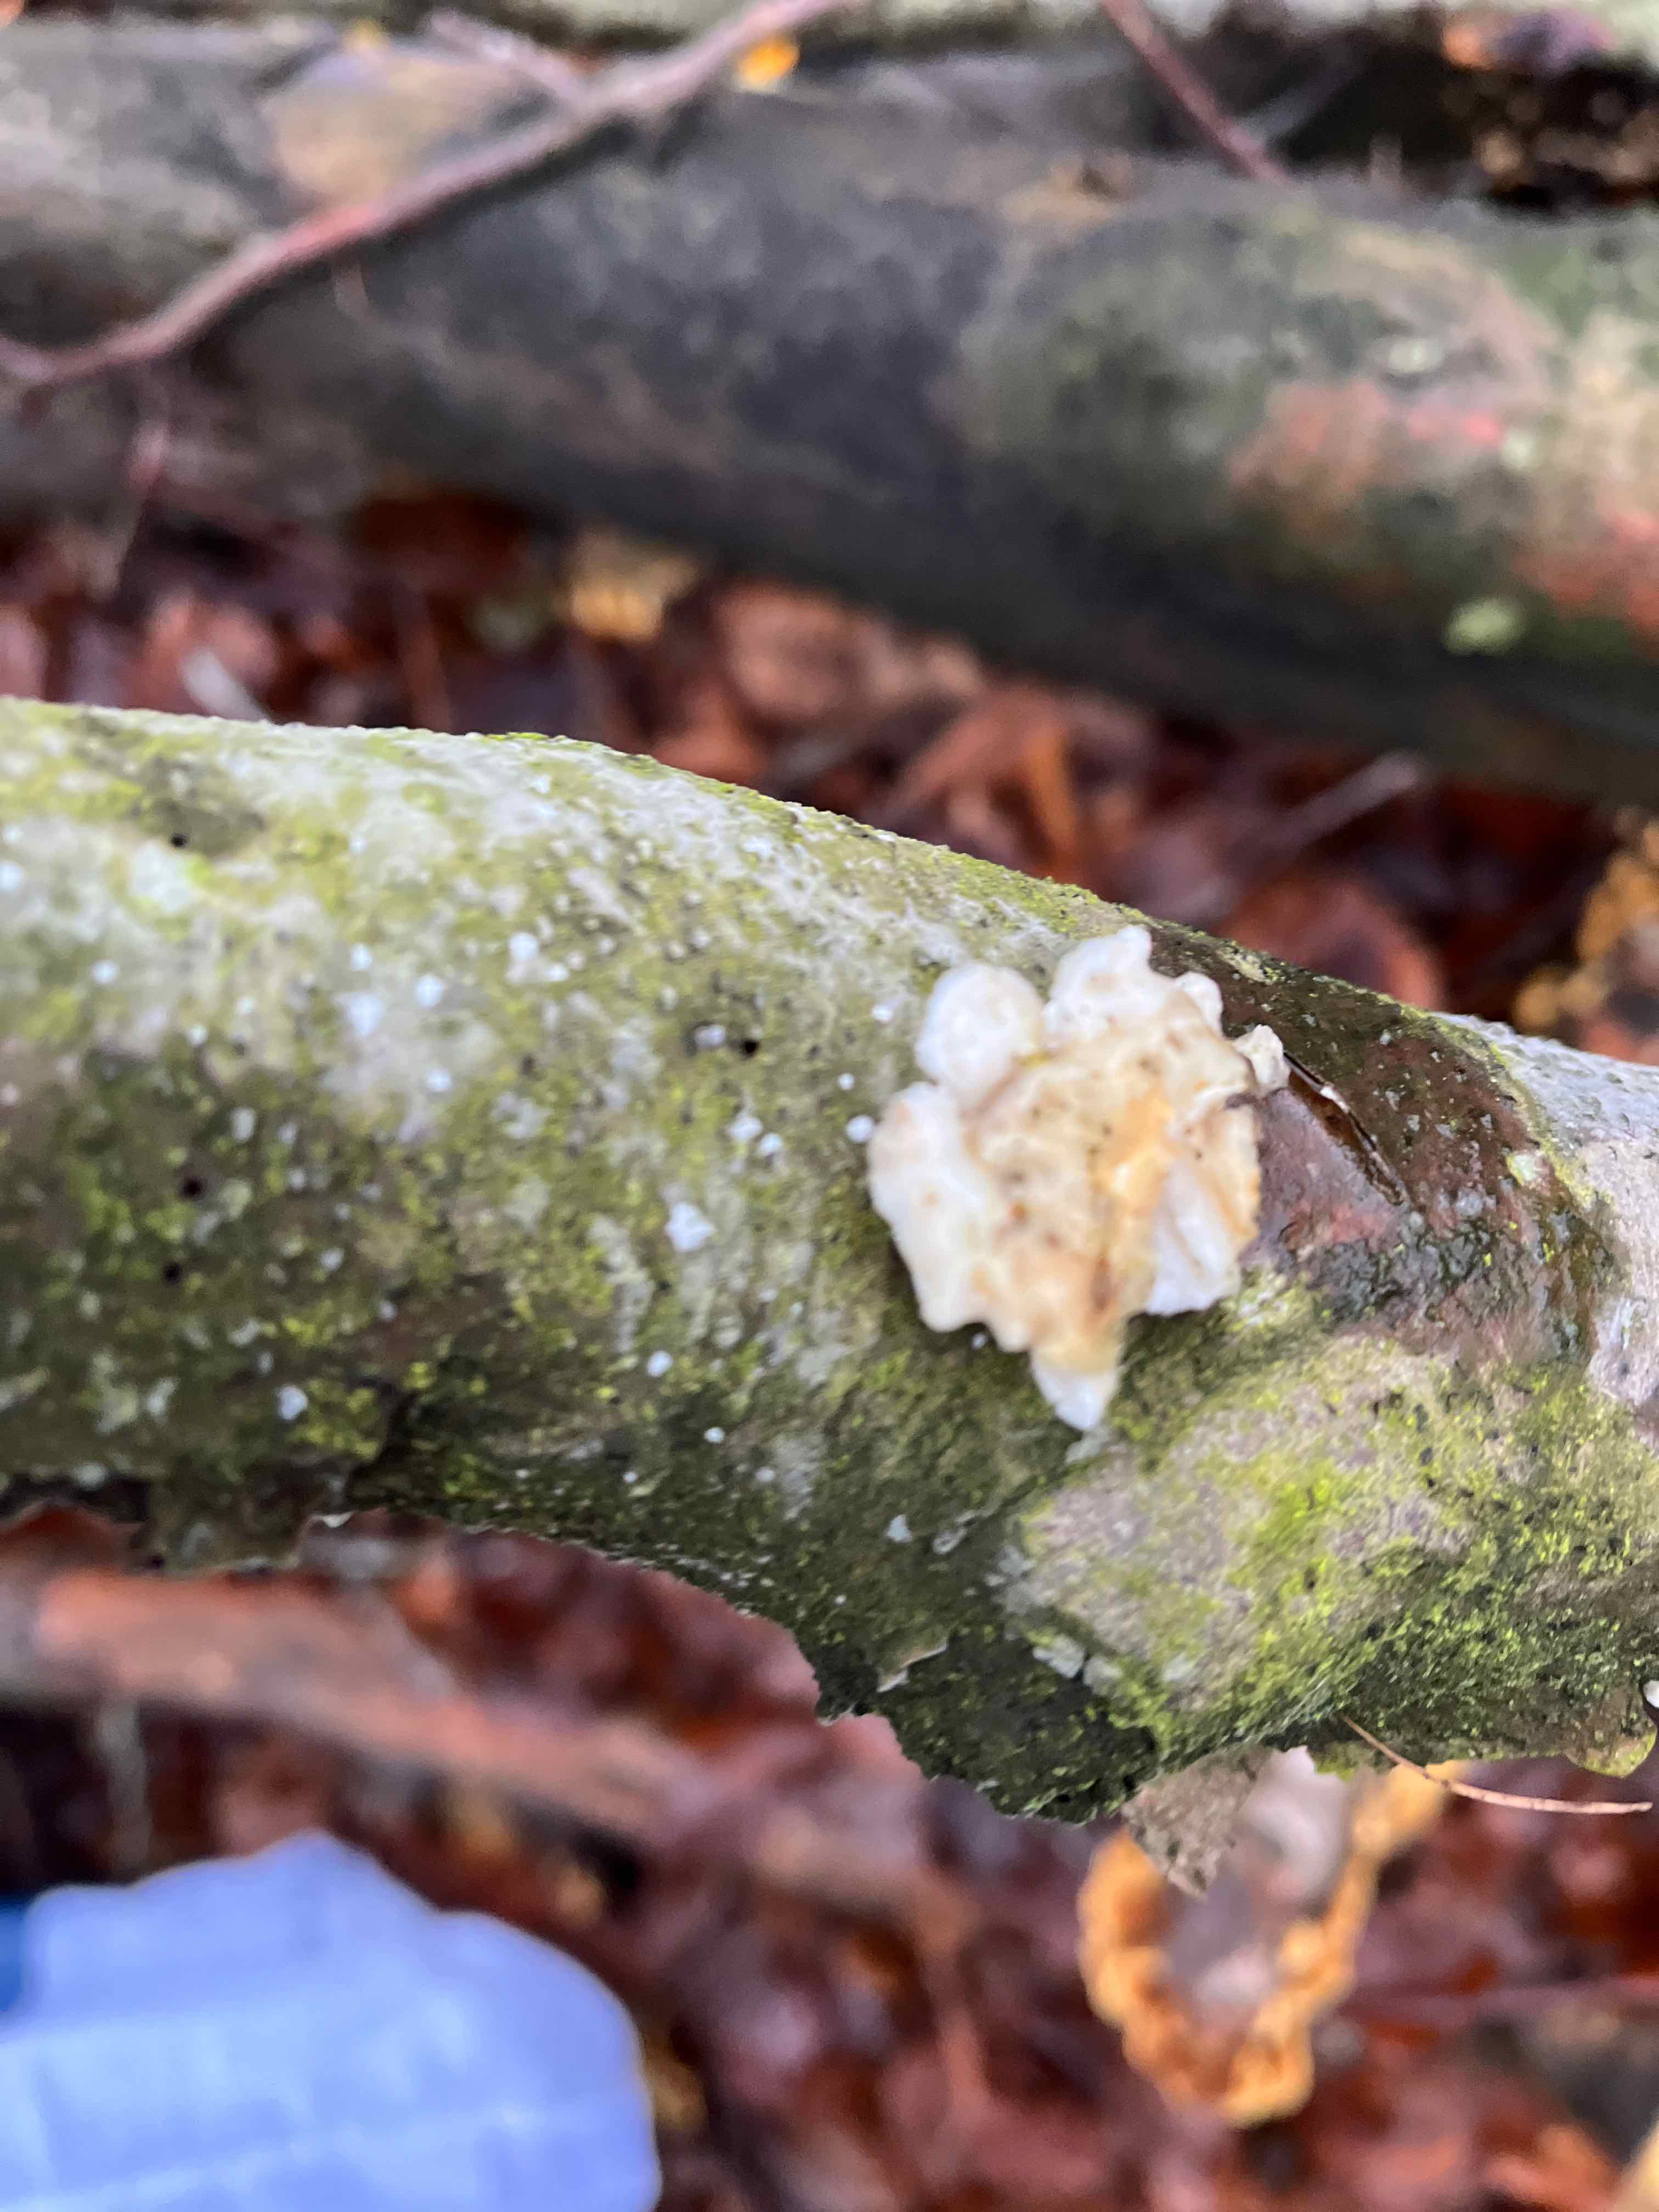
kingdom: Fungi
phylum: Basidiomycota
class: Agaricomycetes
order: Polyporales
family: Irpicaceae
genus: Byssomerulius
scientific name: Byssomerulius corium
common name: læder-åresvamp
